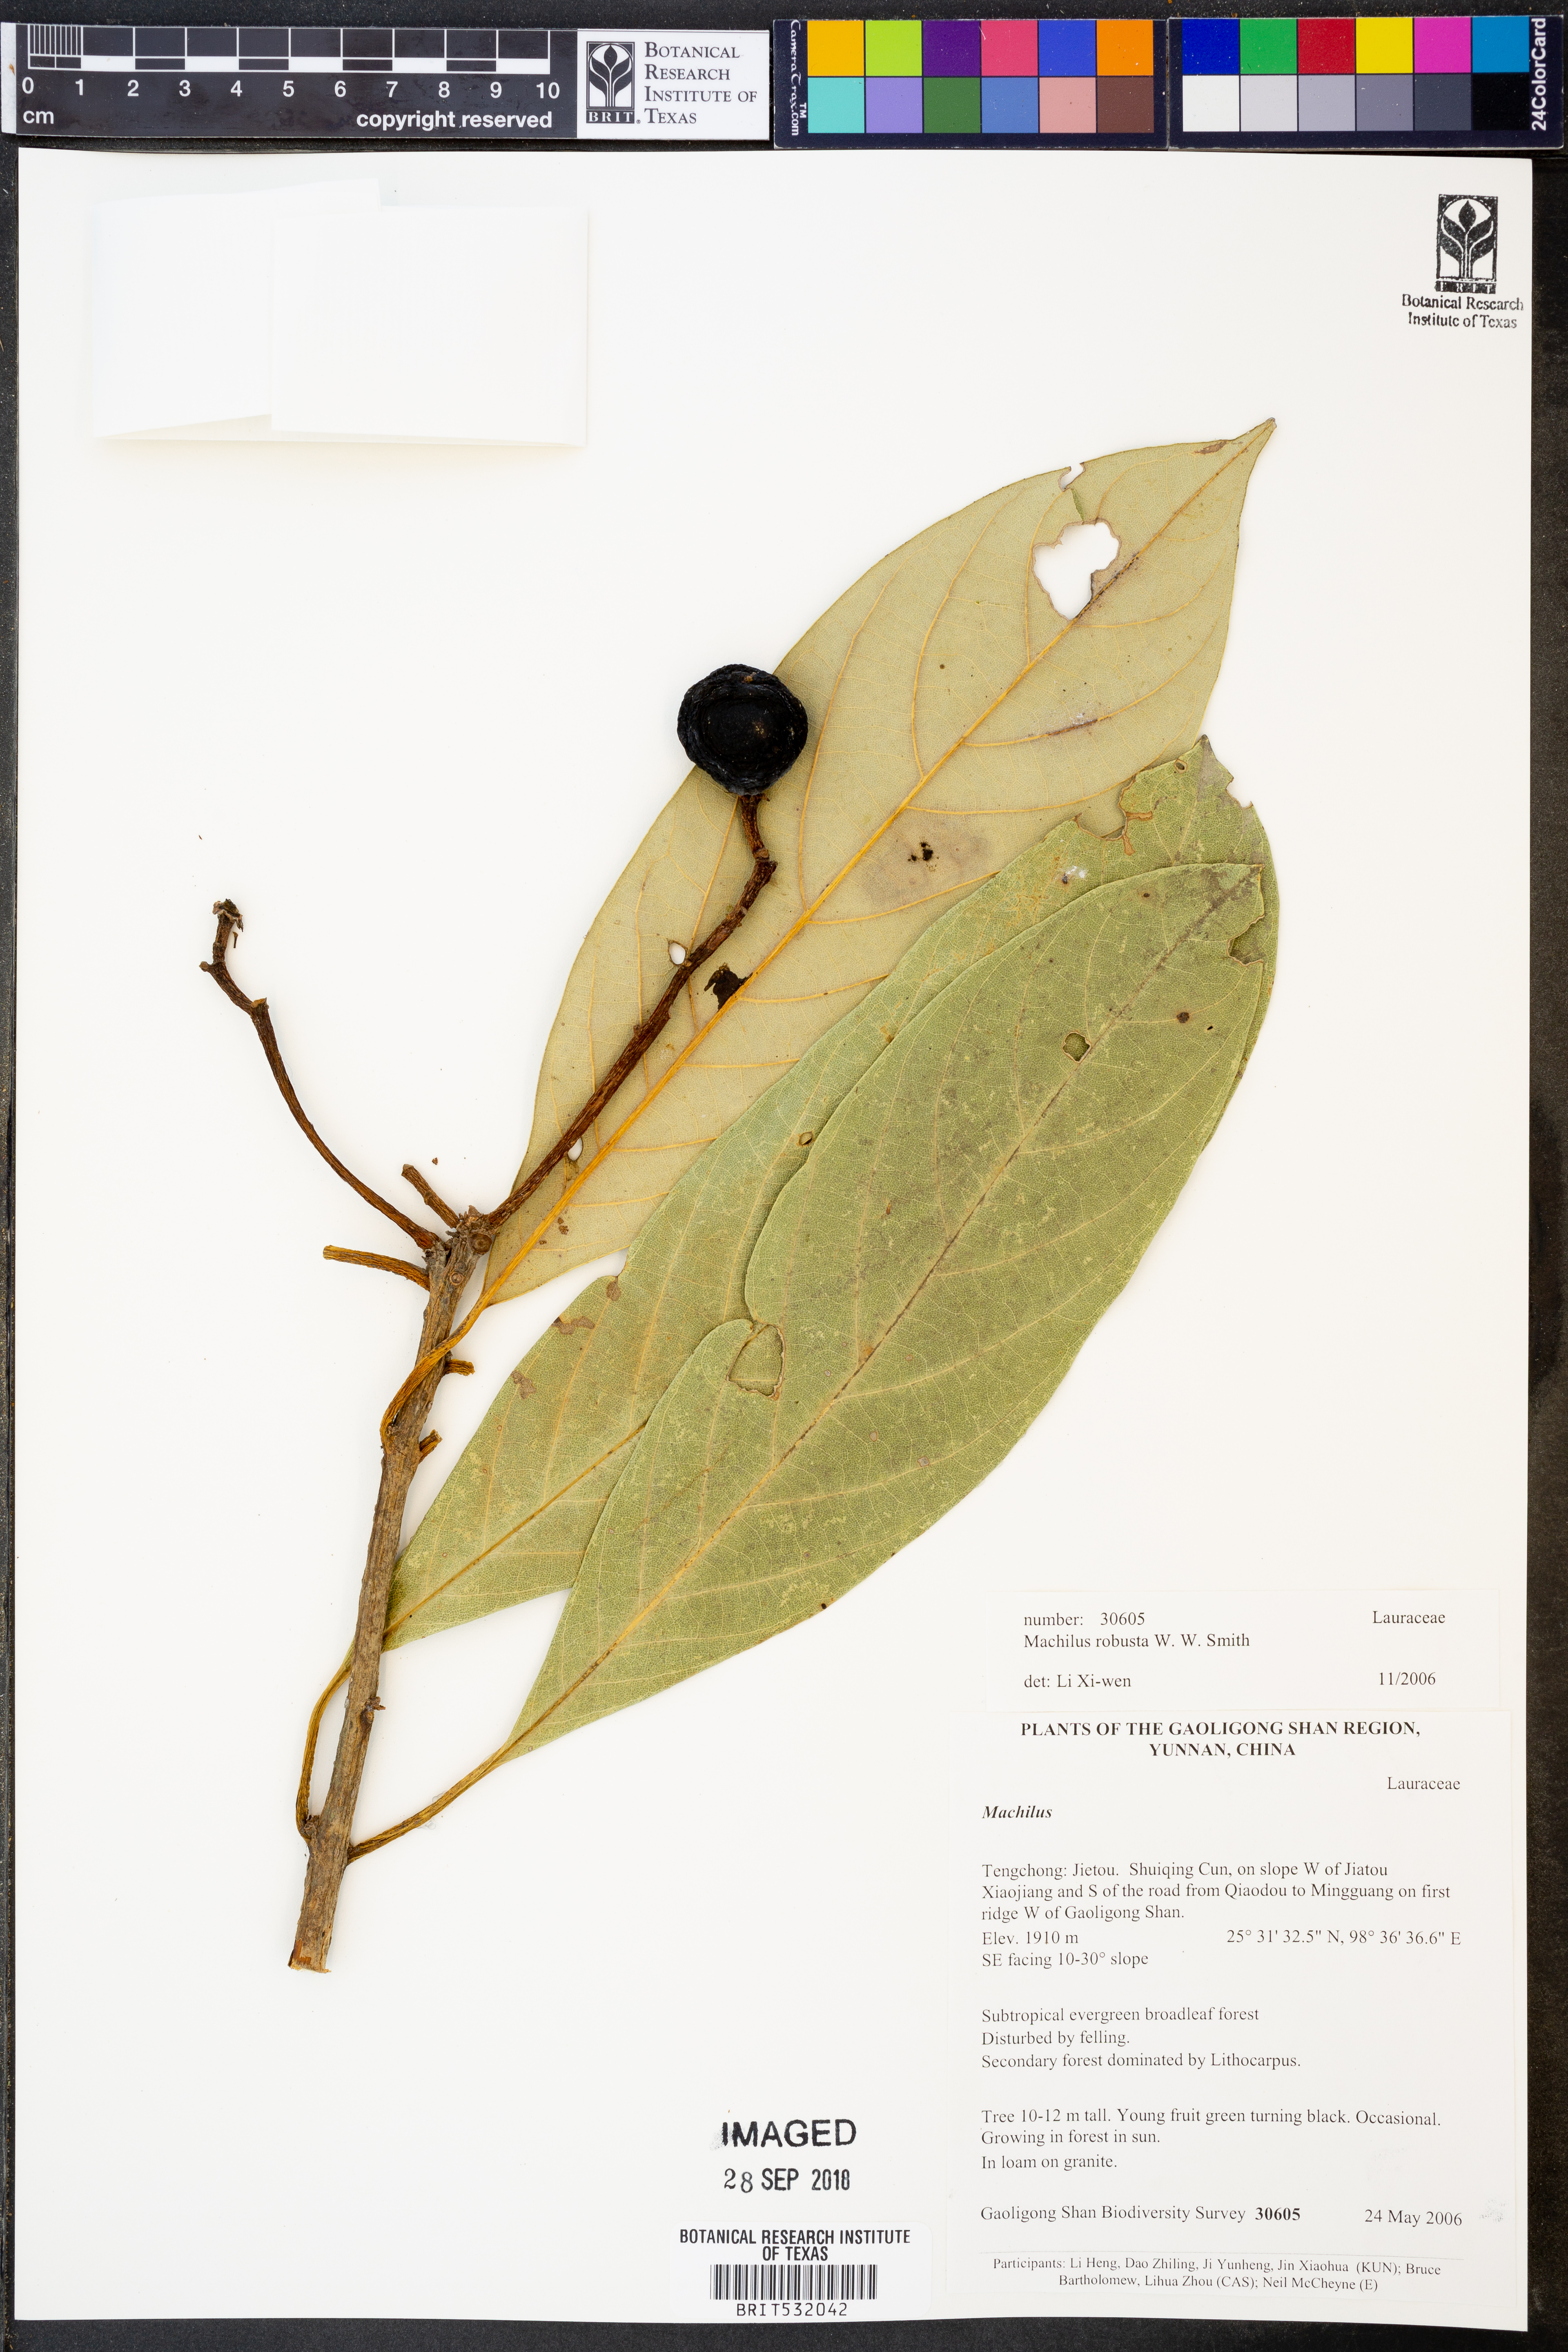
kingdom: Plantae
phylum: Tracheophyta
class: Magnoliopsida
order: Laurales
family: Lauraceae
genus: Machilus
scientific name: Machilus robustus
